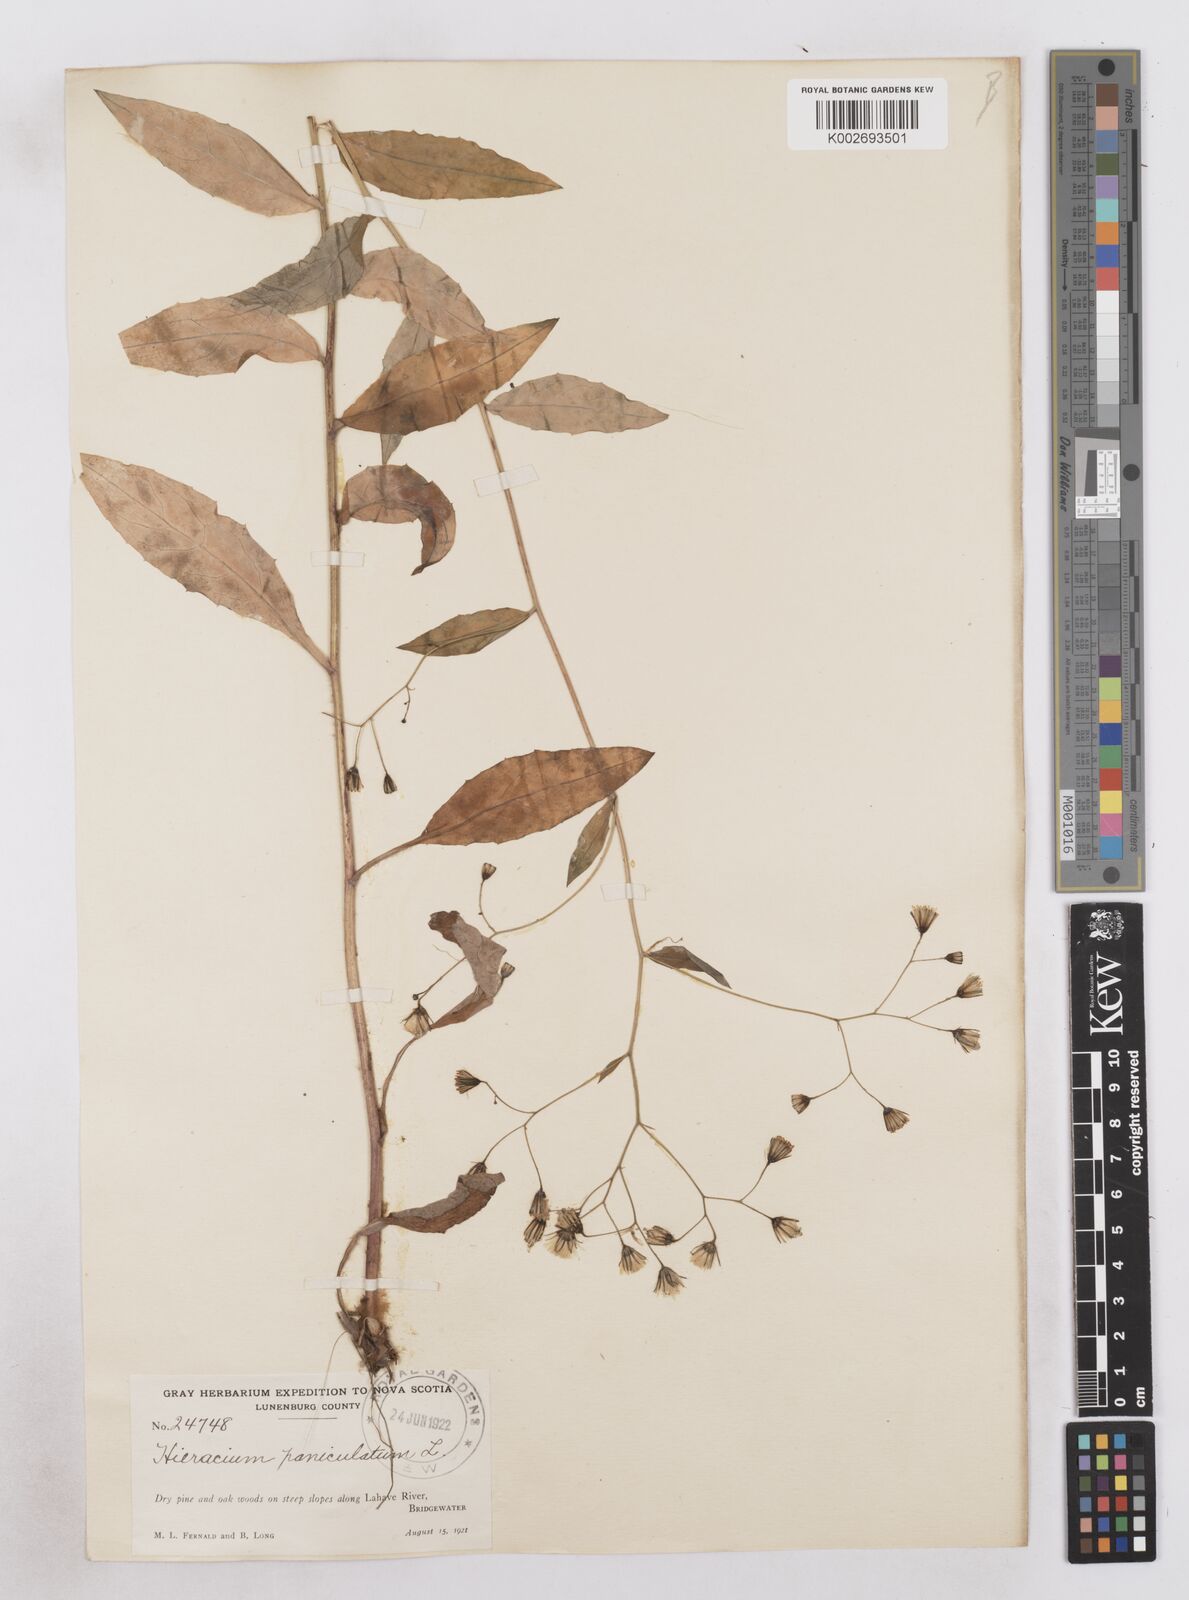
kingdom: Plantae
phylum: Tracheophyta
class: Magnoliopsida
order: Asterales
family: Asteraceae
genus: Hieracium
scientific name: Hieracium paniculatum
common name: Allegheny hawkweed
